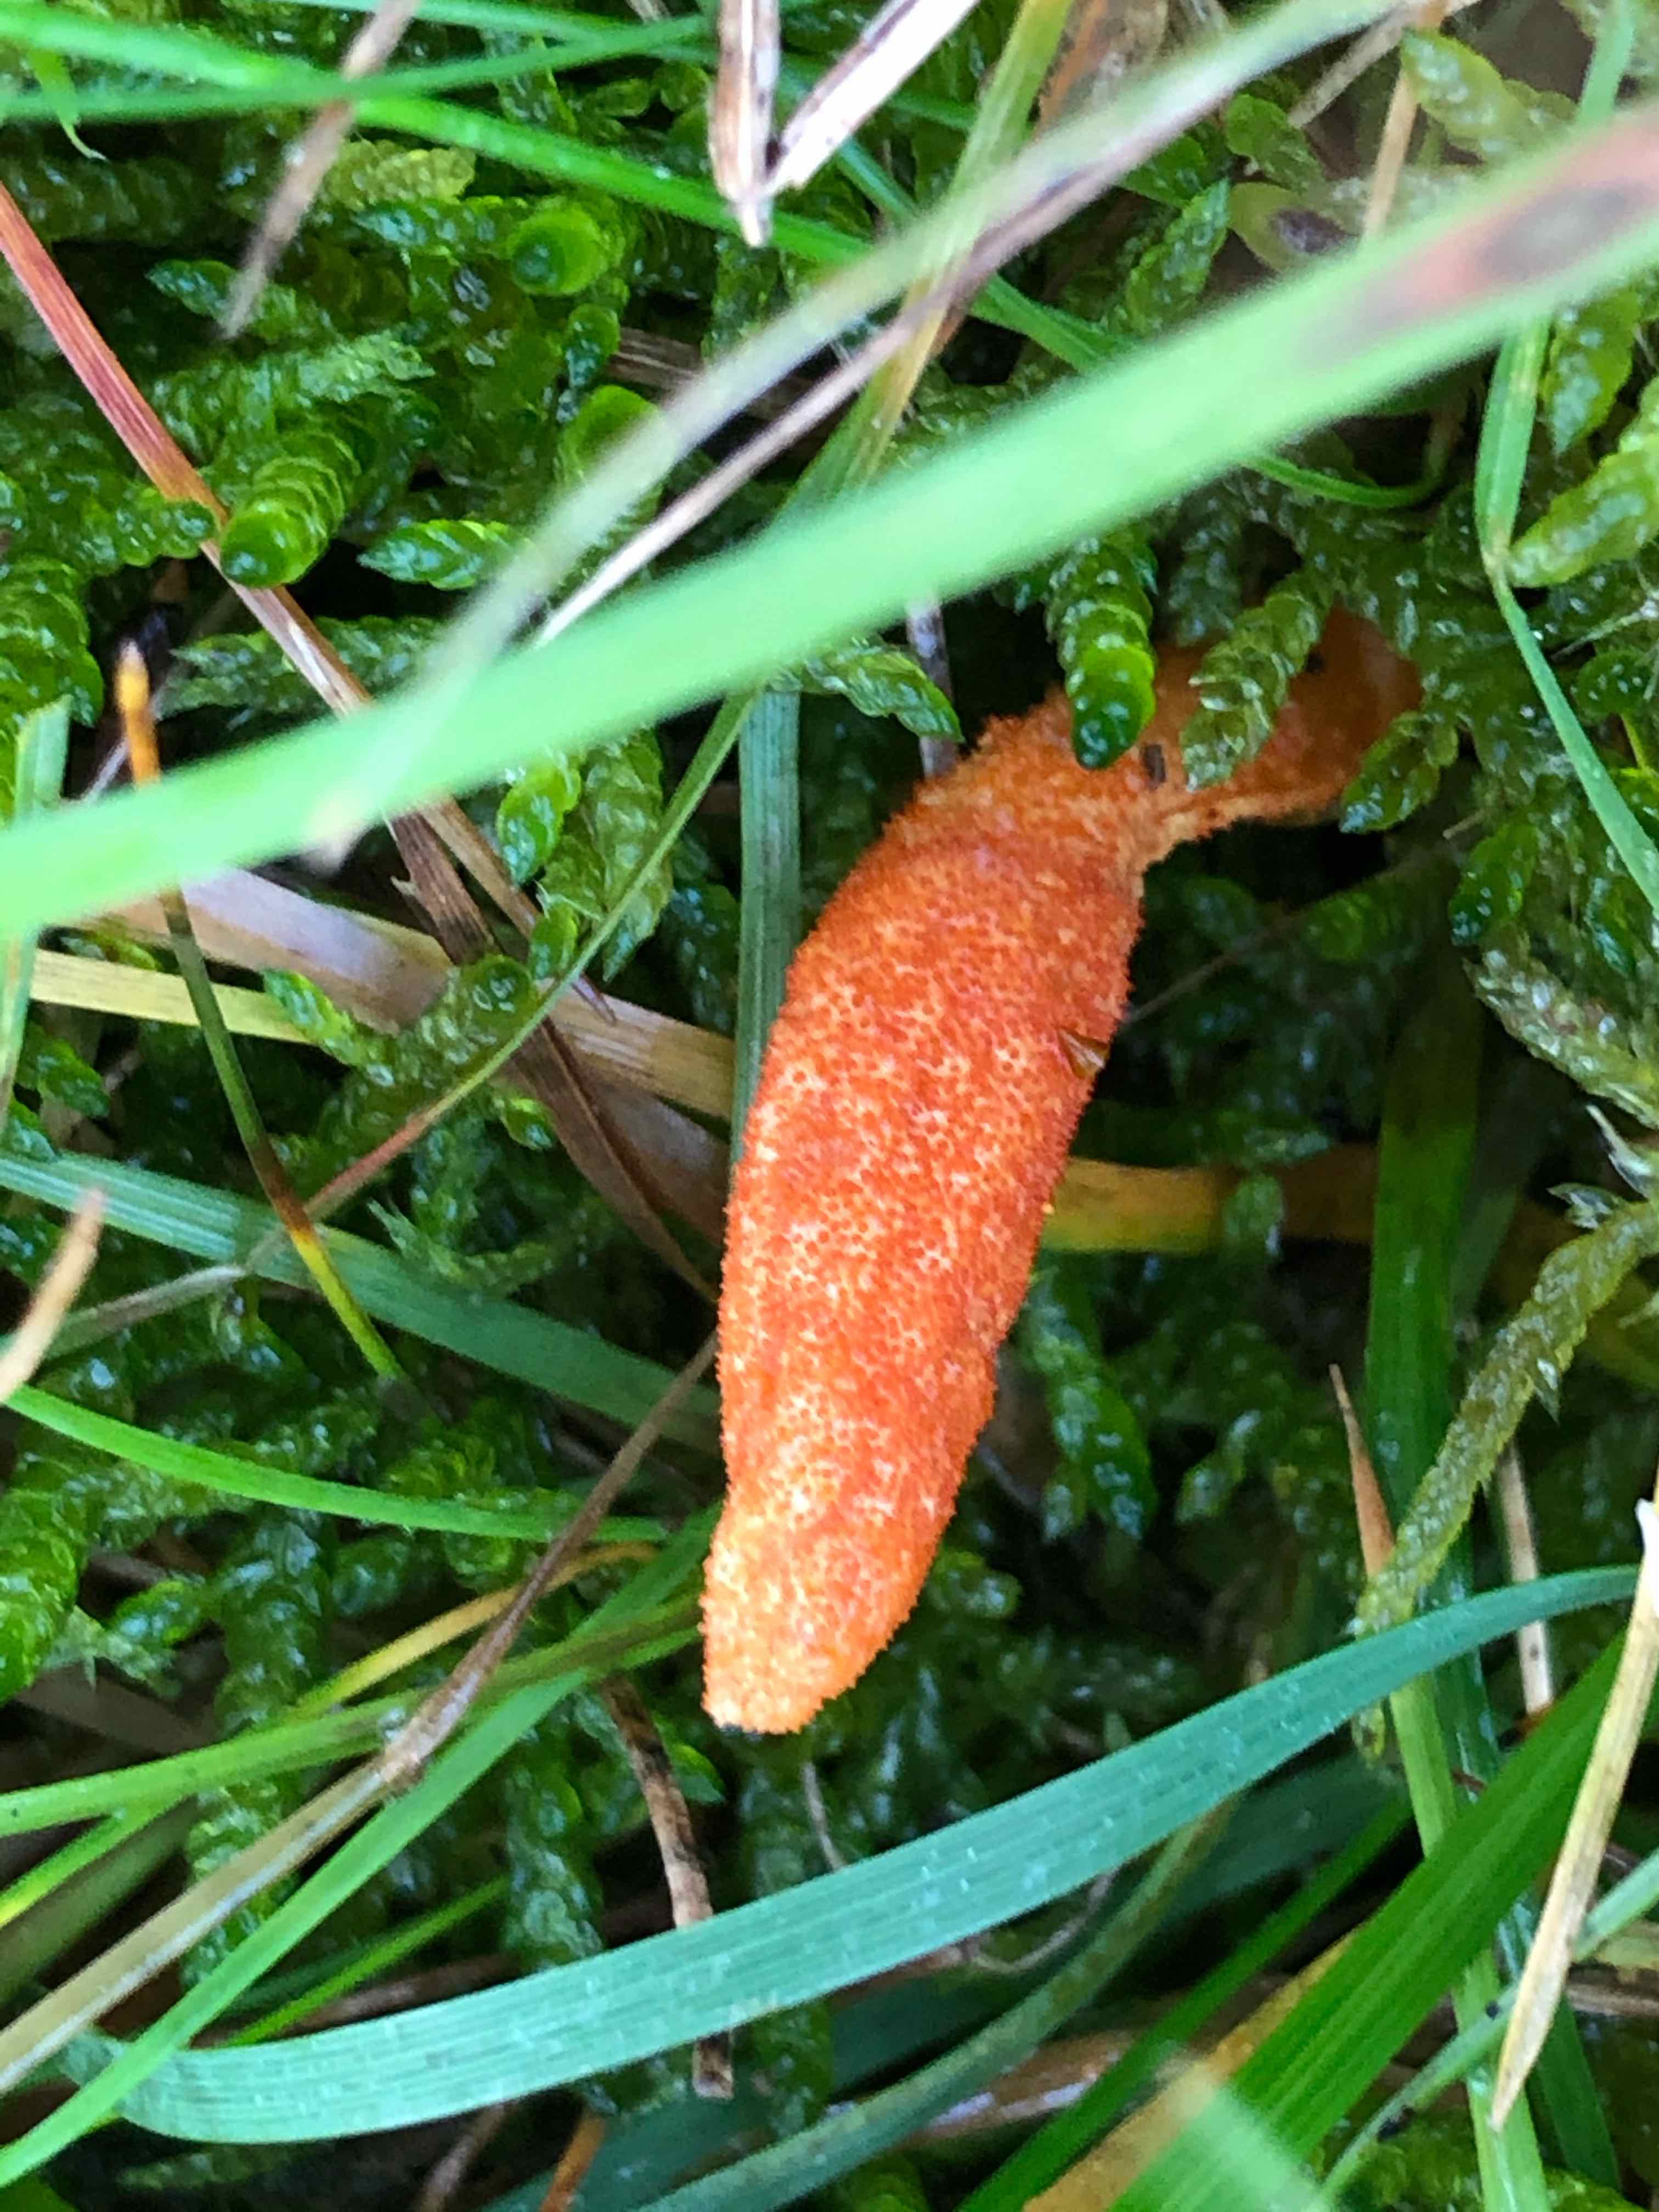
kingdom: Fungi
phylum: Ascomycota
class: Sordariomycetes
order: Hypocreales
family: Cordycipitaceae
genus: Cordyceps
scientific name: Cordyceps militaris
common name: puppe-snyltekølle
